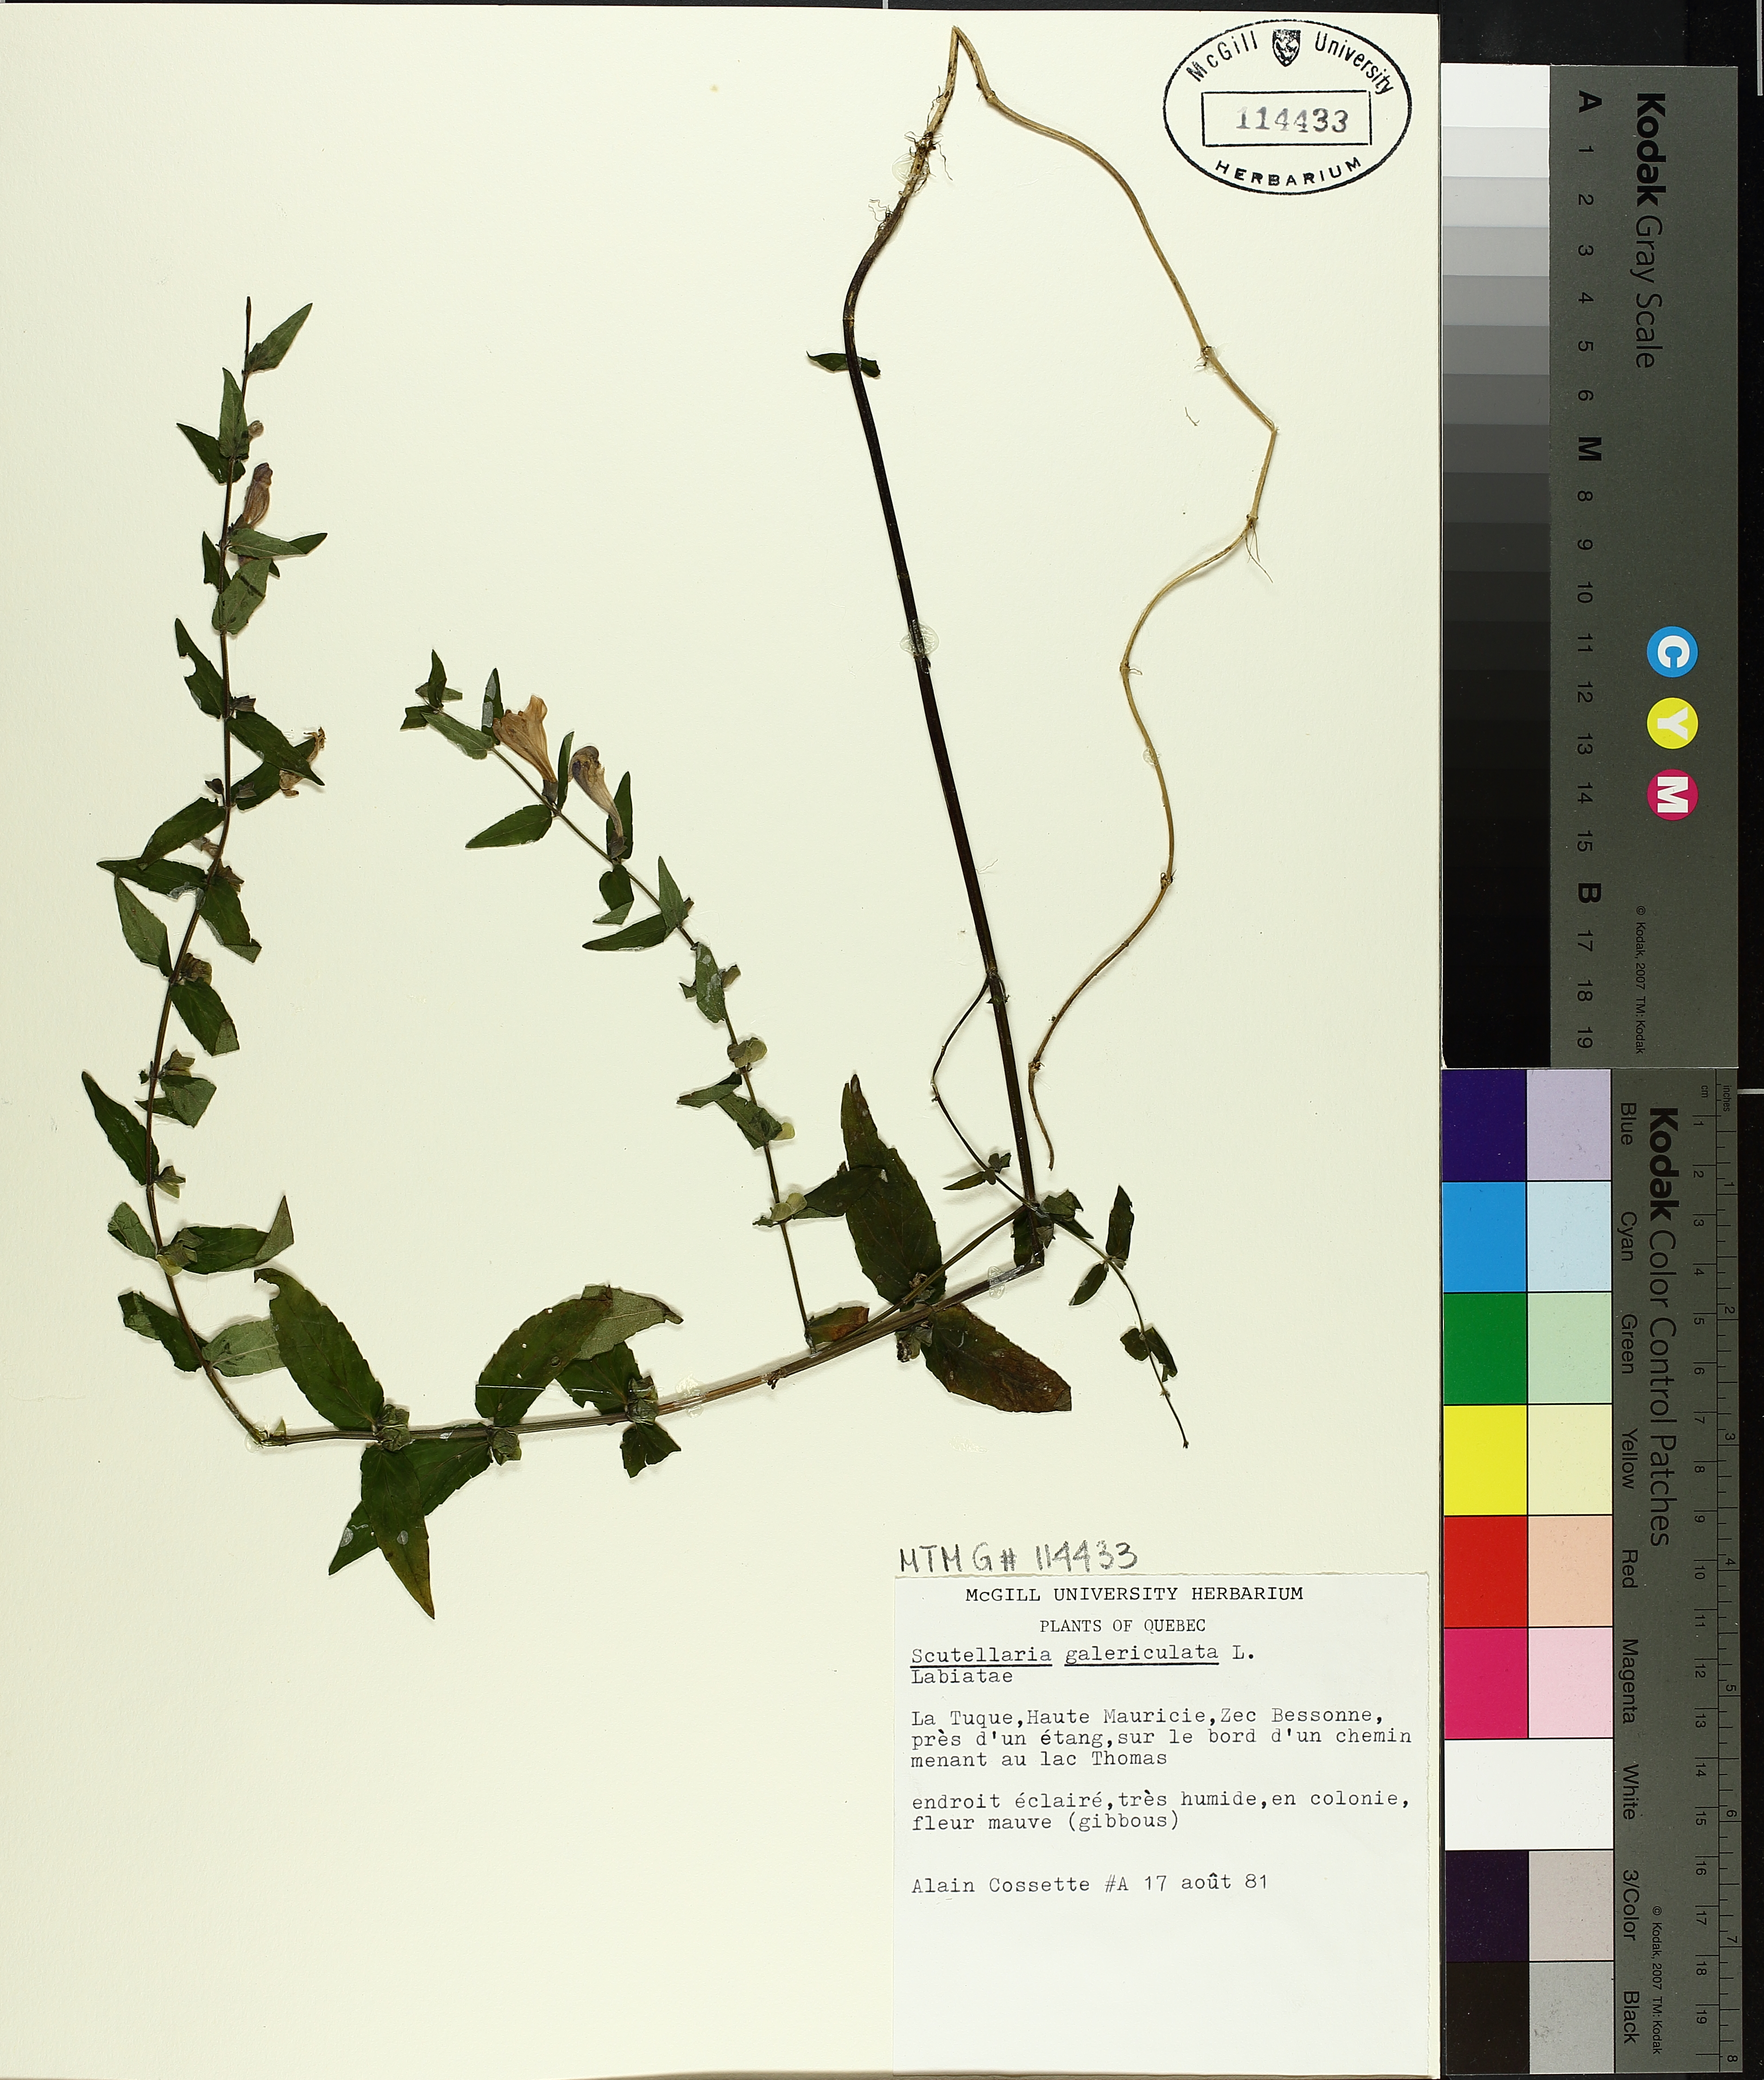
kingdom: Plantae
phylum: Tracheophyta
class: Magnoliopsida
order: Lamiales
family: Lamiaceae
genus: Scutellaria
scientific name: Scutellaria galericulata
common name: Skullcap
